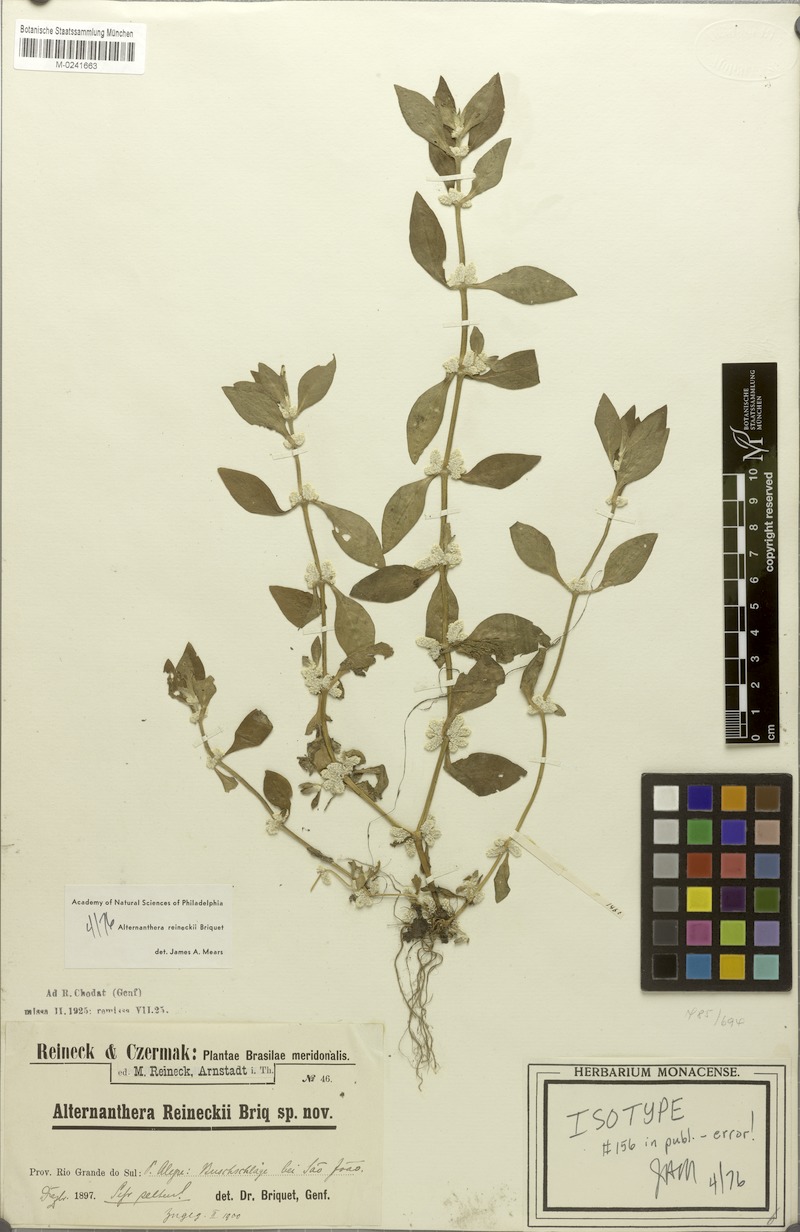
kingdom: Plantae
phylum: Tracheophyta
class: Magnoliopsida
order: Caryophyllales
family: Amaranthaceae
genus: Alternanthera
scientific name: Alternanthera reineckii
